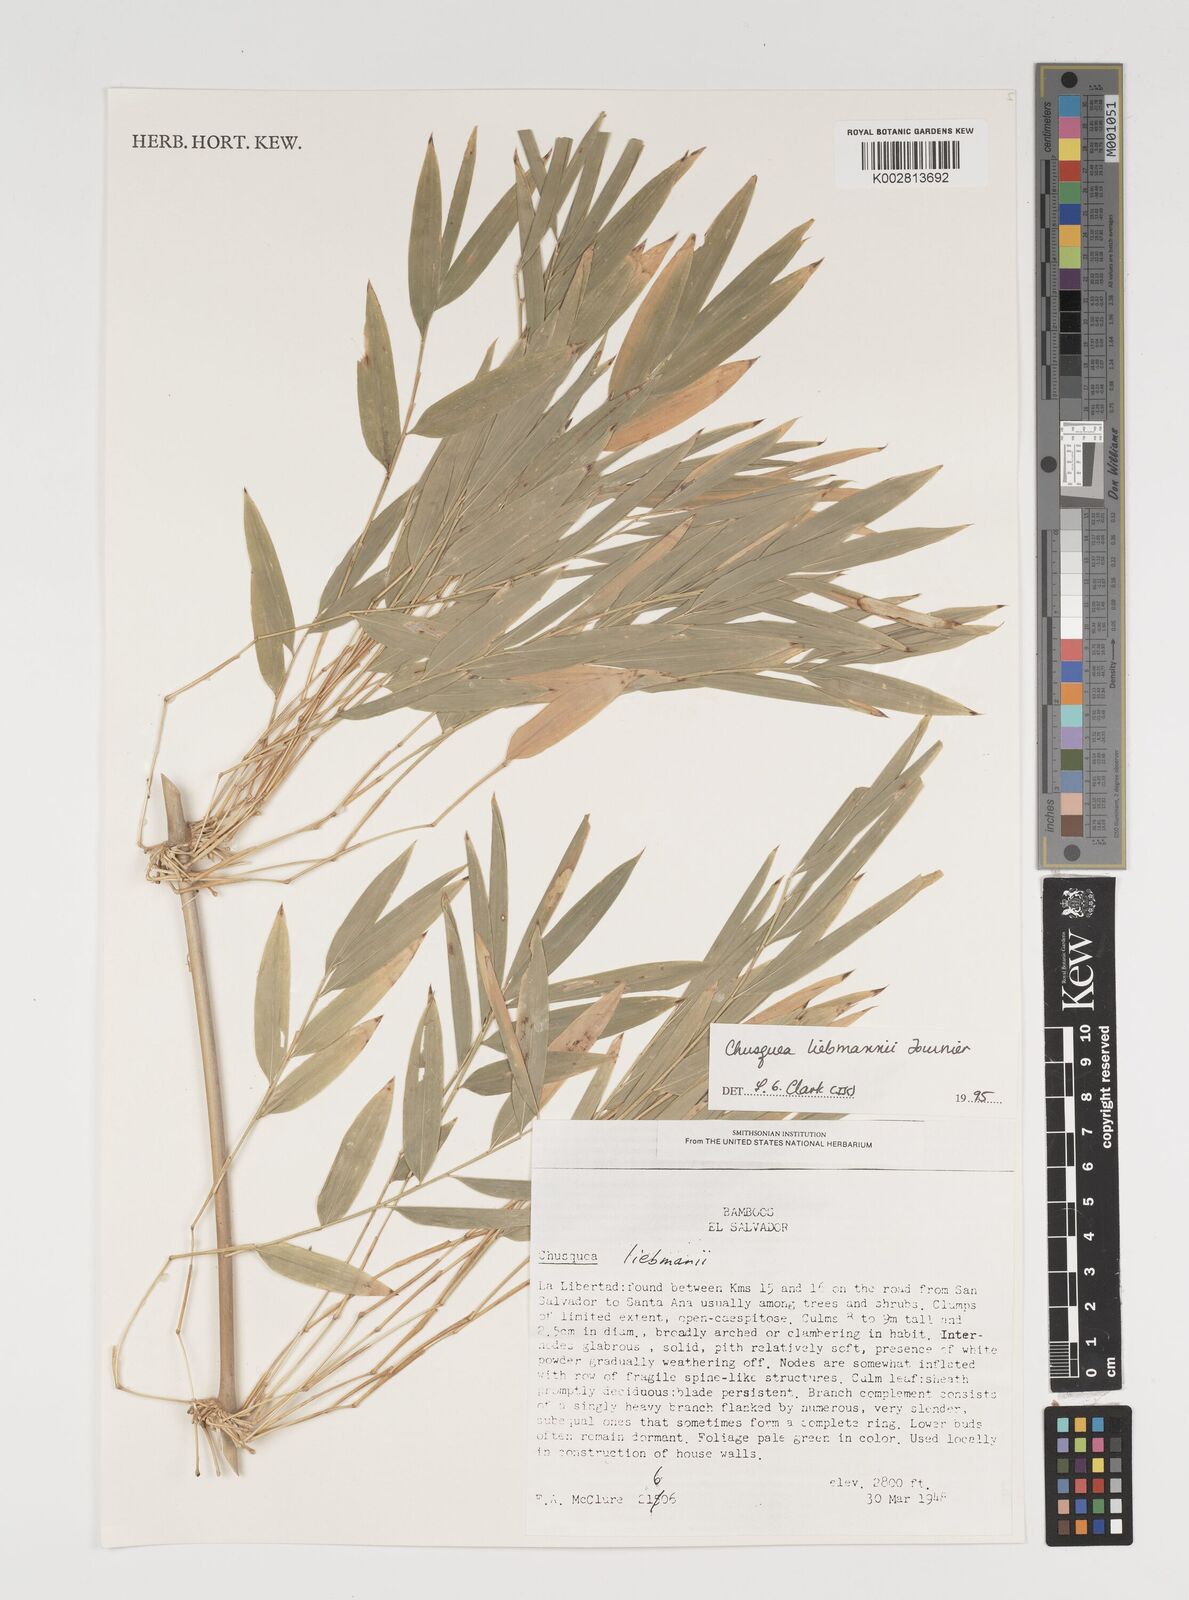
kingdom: Plantae
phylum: Tracheophyta
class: Liliopsida
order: Poales
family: Poaceae
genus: Chusquea
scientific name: Chusquea liebmannii
